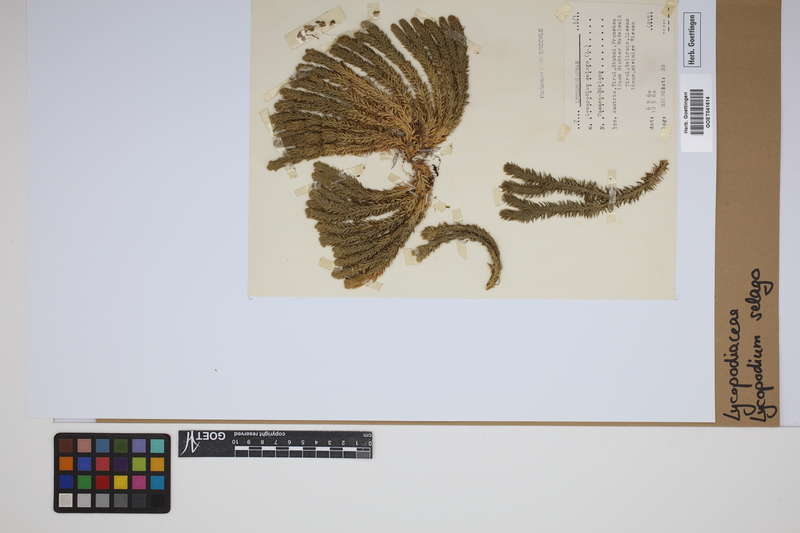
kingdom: Plantae
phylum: Tracheophyta
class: Lycopodiopsida
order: Lycopodiales
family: Lycopodiaceae
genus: Huperzia
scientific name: Huperzia selago
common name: Northern firmoss
